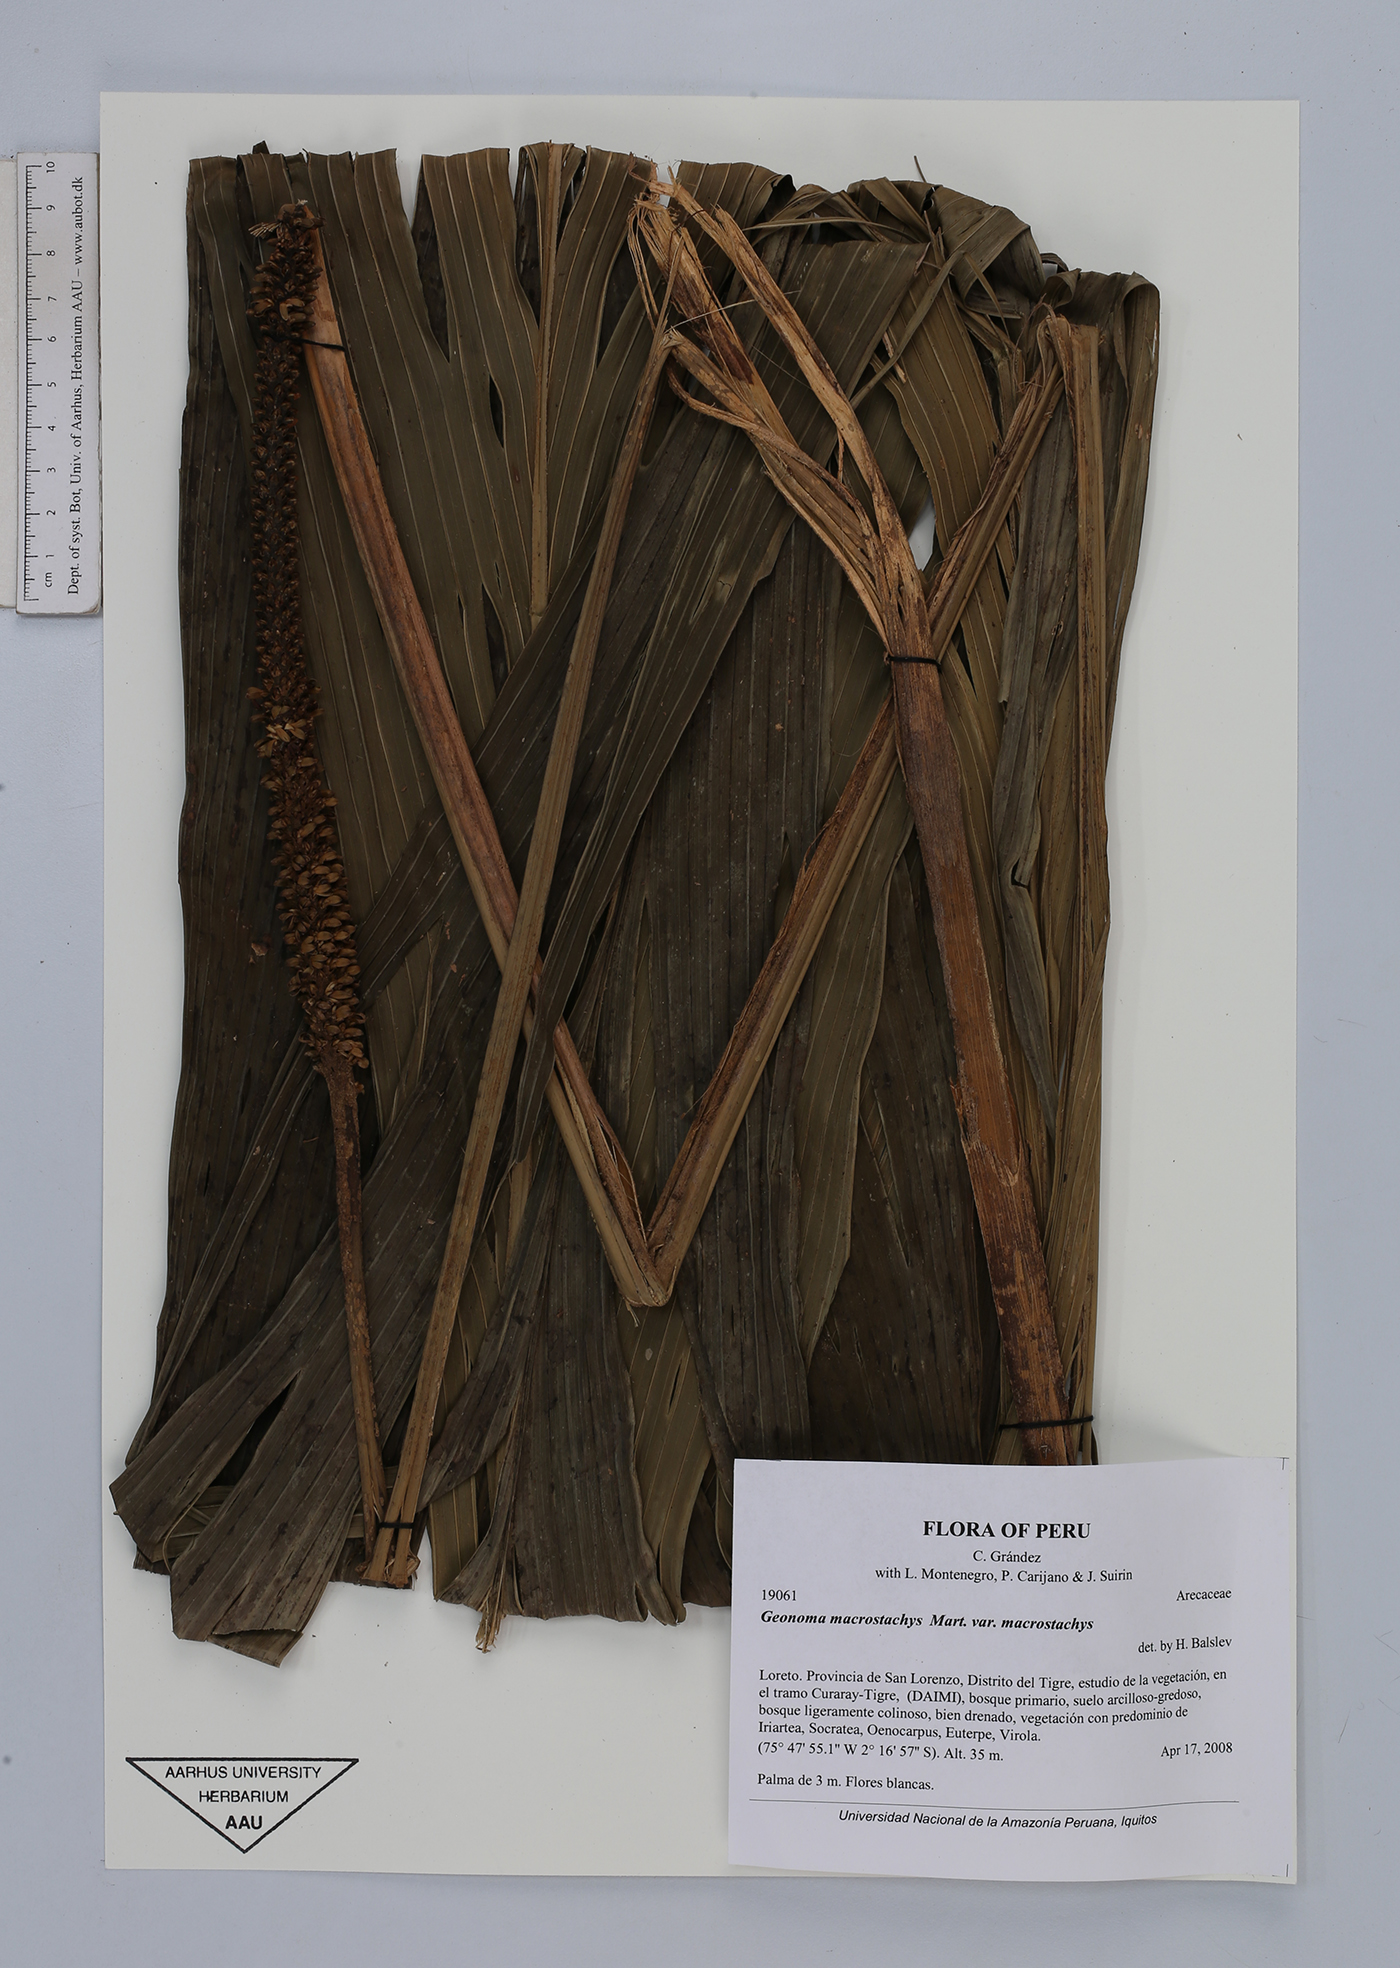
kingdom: Plantae
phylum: Tracheophyta
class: Liliopsida
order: Arecales
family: Arecaceae
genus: Geonoma
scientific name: Geonoma macrostachys
